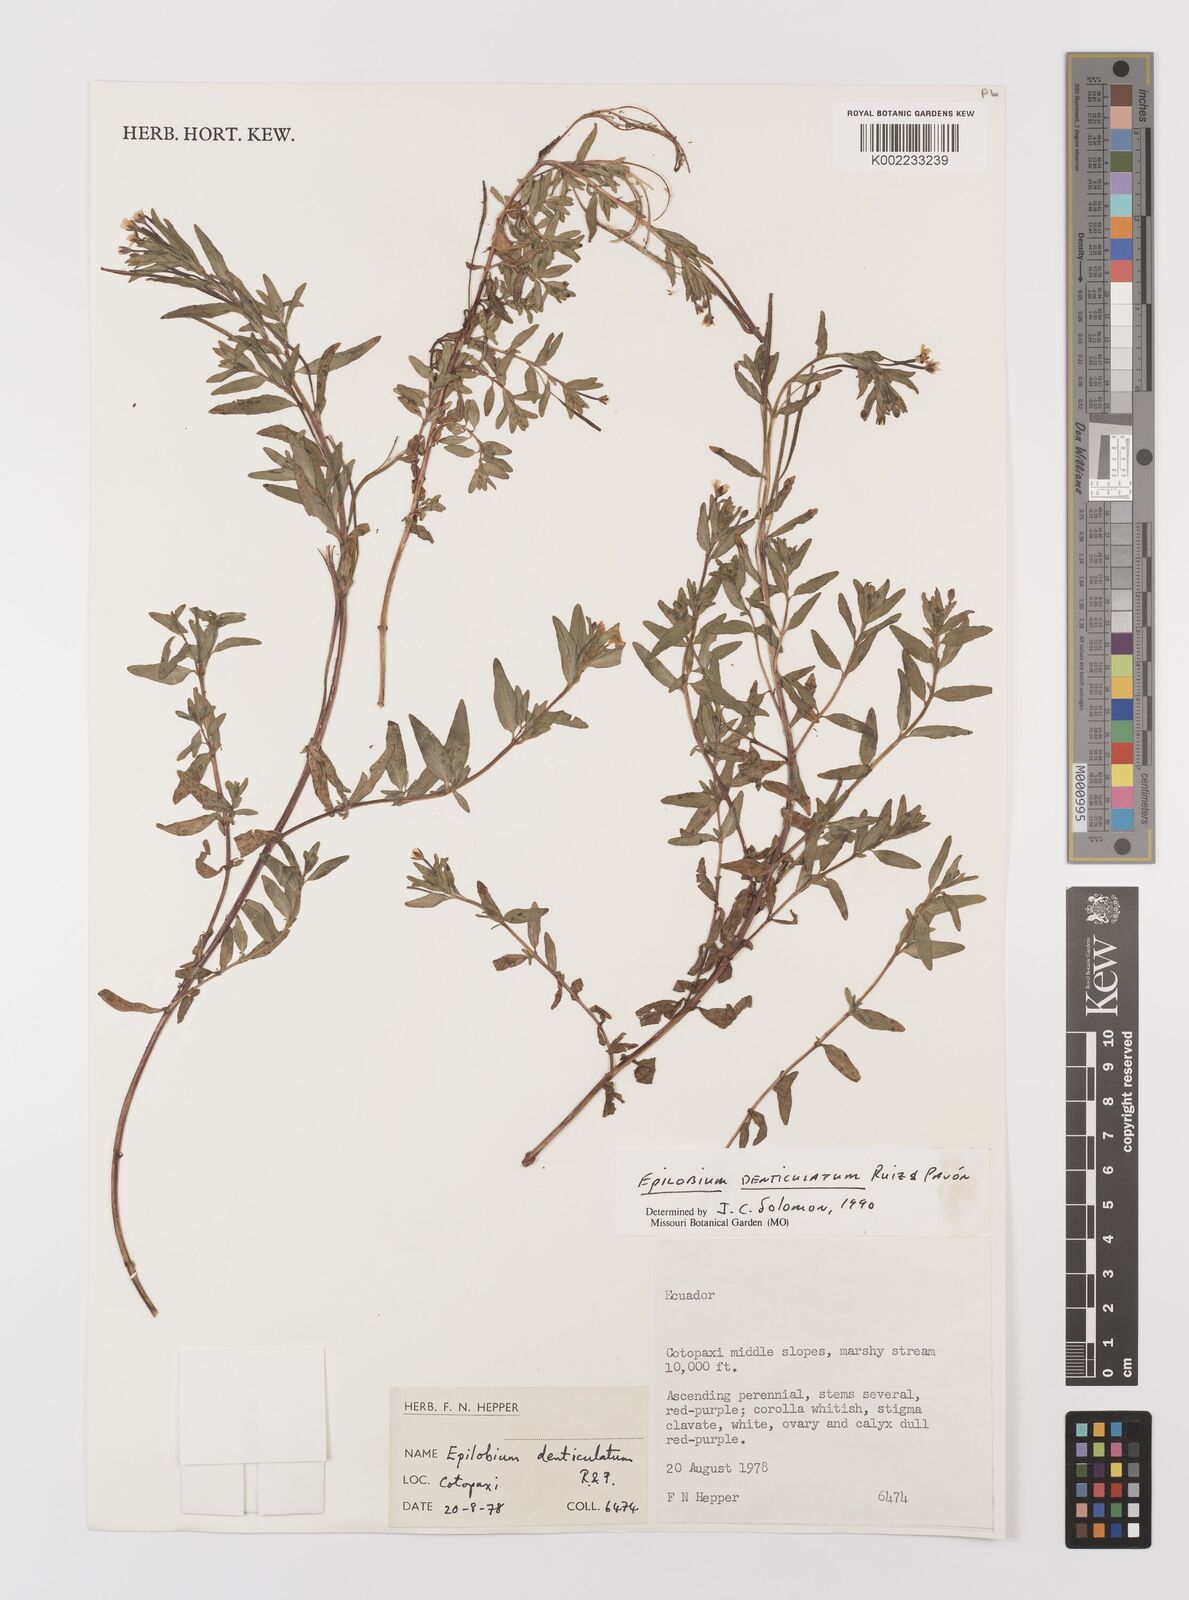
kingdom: Plantae
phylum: Tracheophyta
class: Magnoliopsida
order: Myrtales
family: Onagraceae
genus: Epilobium
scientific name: Epilobium denticulatum
